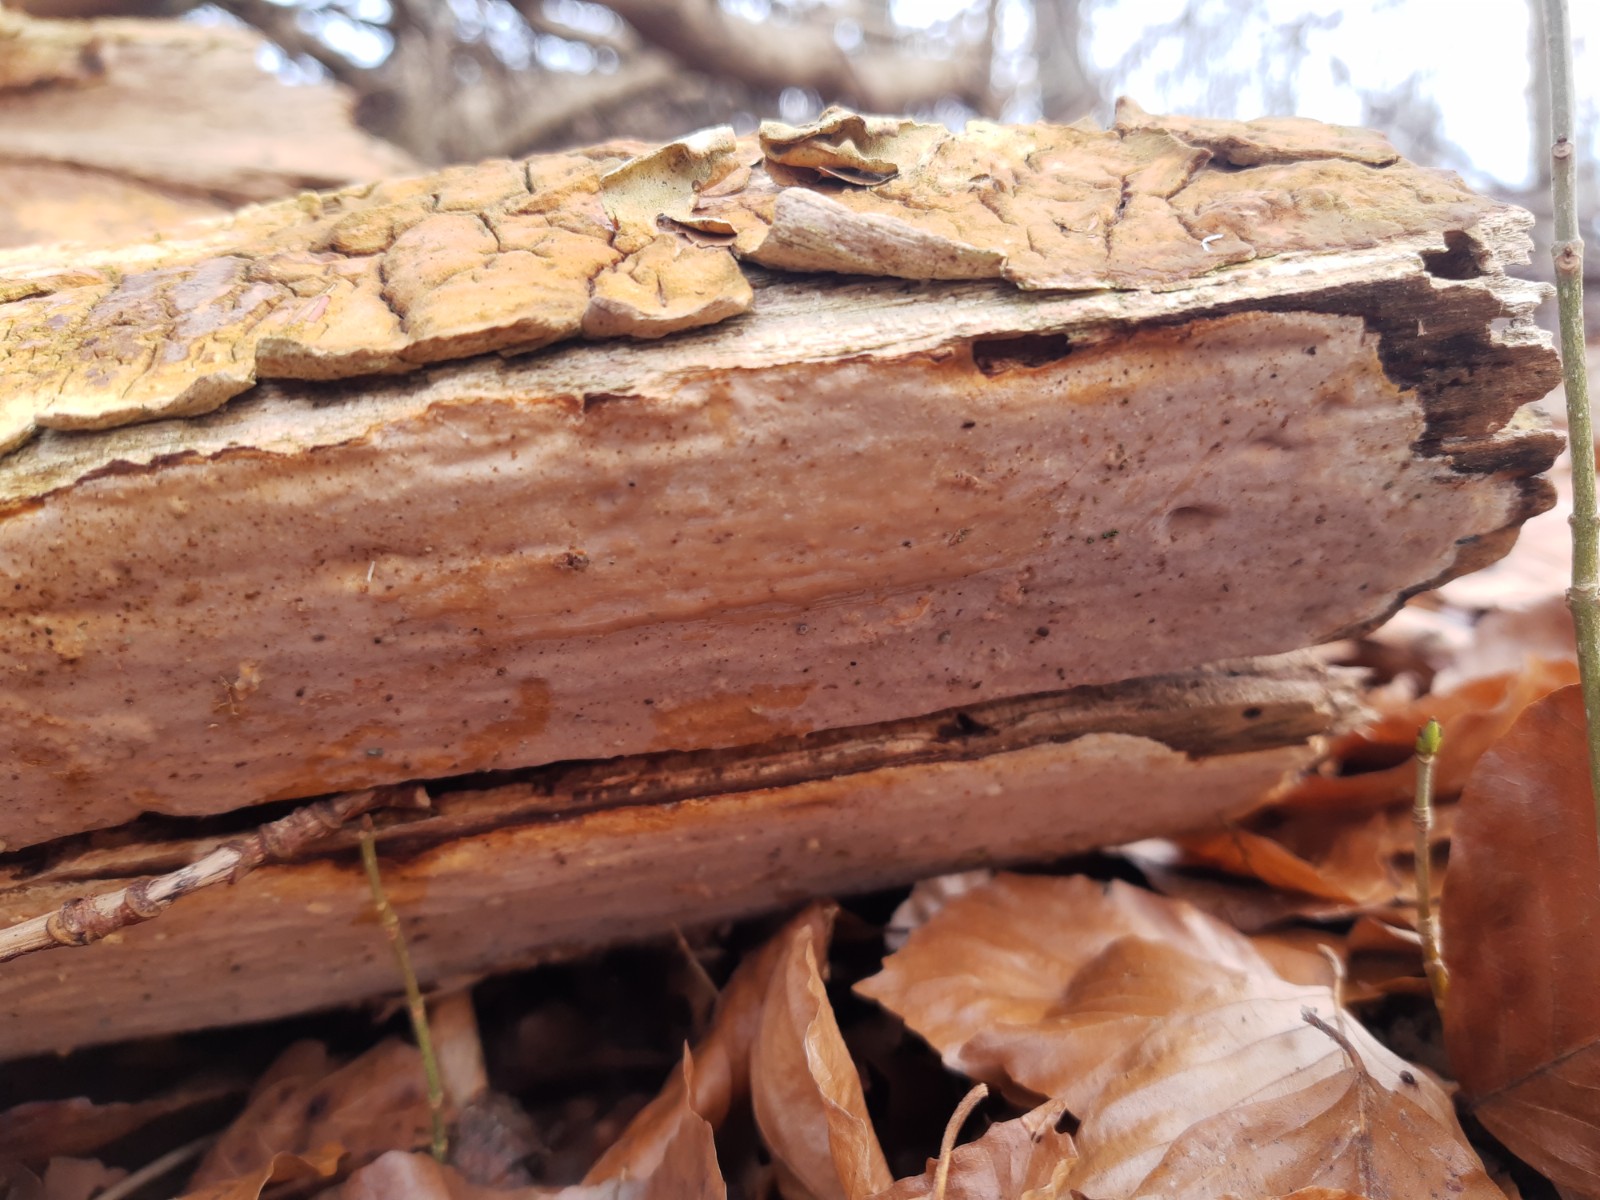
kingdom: Fungi
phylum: Basidiomycota
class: Agaricomycetes
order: Russulales
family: Peniophoraceae
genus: Scytinostroma
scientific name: Scytinostroma hemidichophyticum
